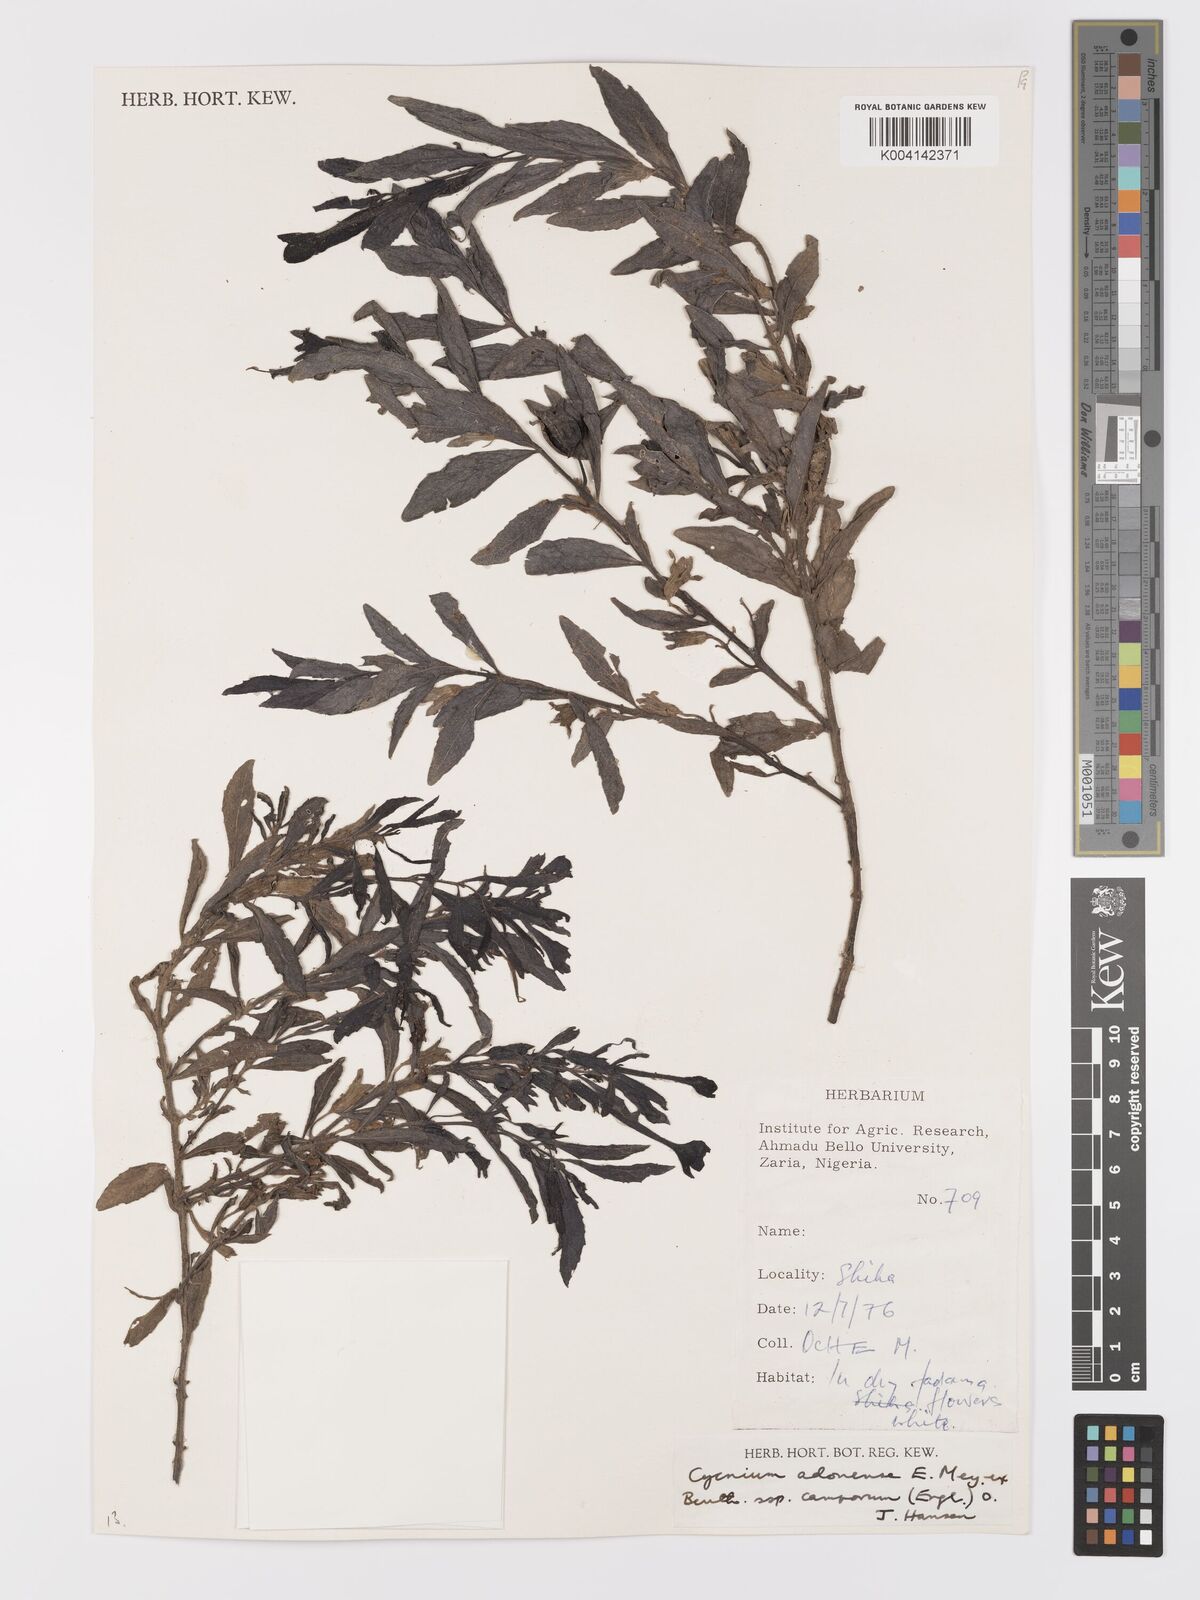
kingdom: Plantae
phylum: Tracheophyta
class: Magnoliopsida
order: Lamiales
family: Orobanchaceae
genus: Cycnium
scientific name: Cycnium adoense
